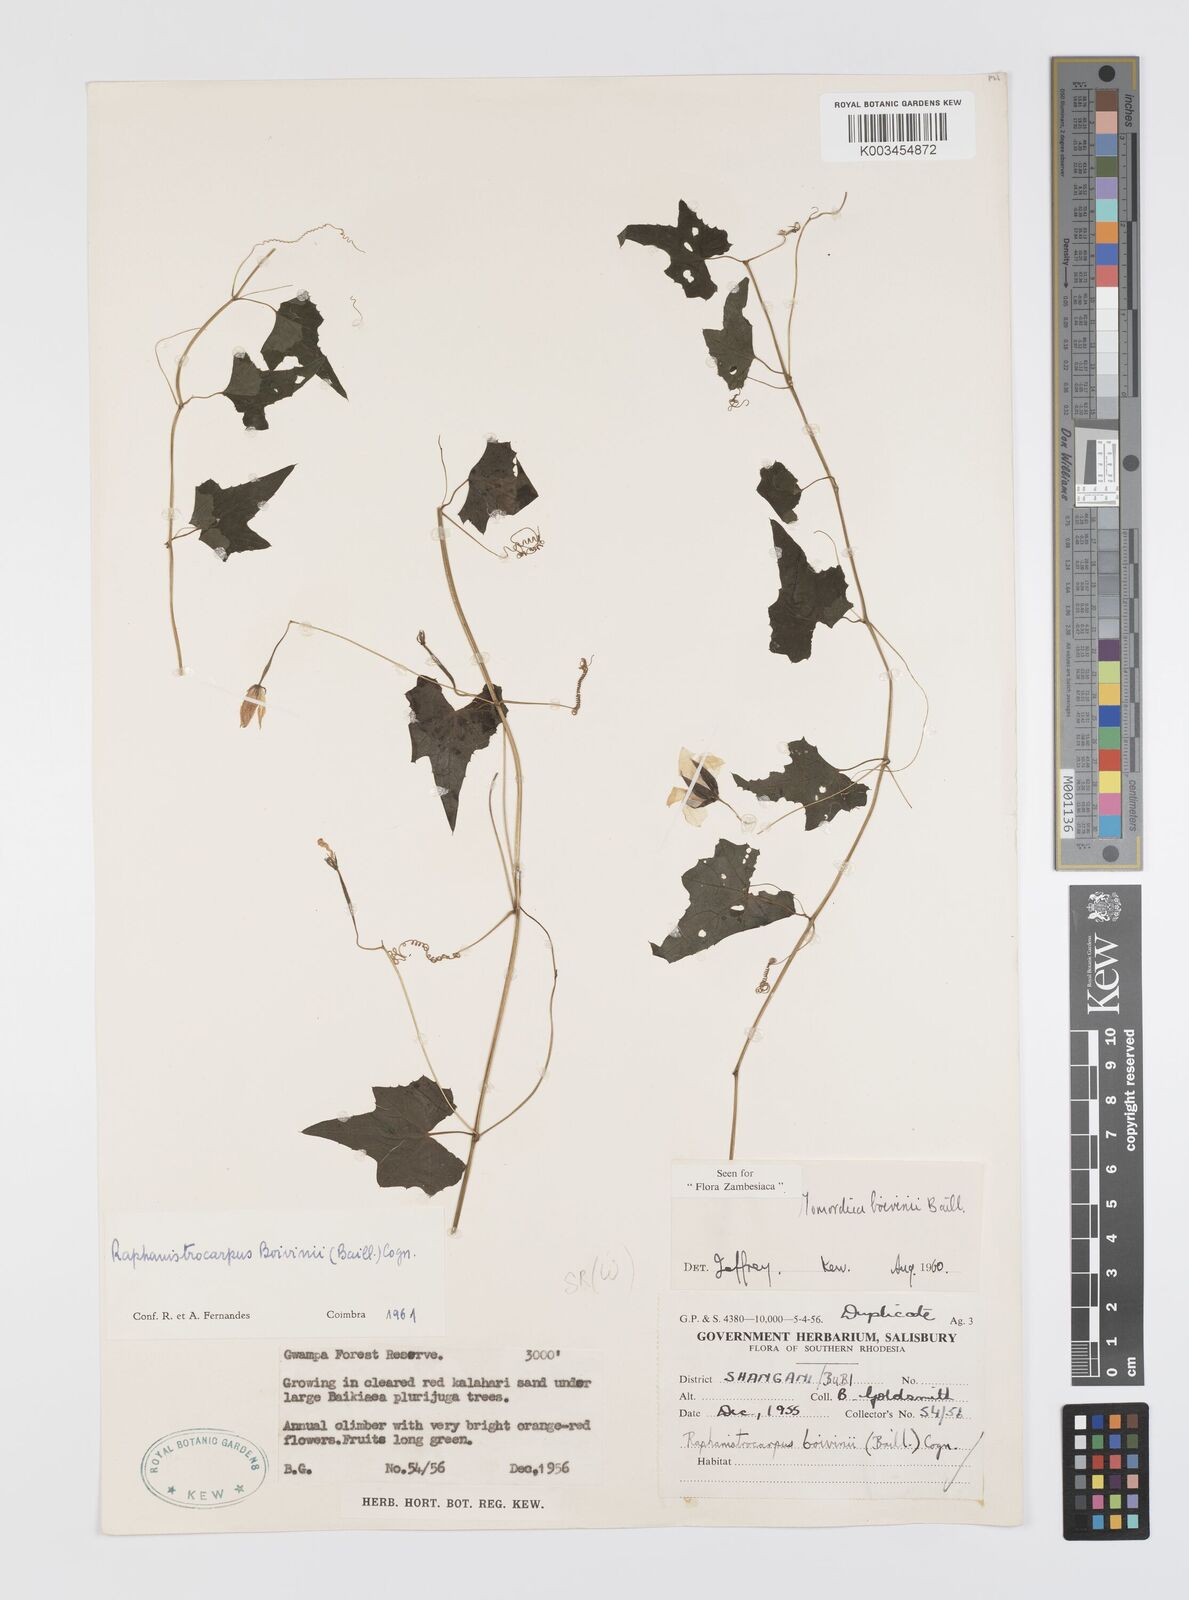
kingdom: Plantae
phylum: Tracheophyta
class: Magnoliopsida
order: Cucurbitales
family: Cucurbitaceae
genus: Momordica
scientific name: Momordica boivinii
